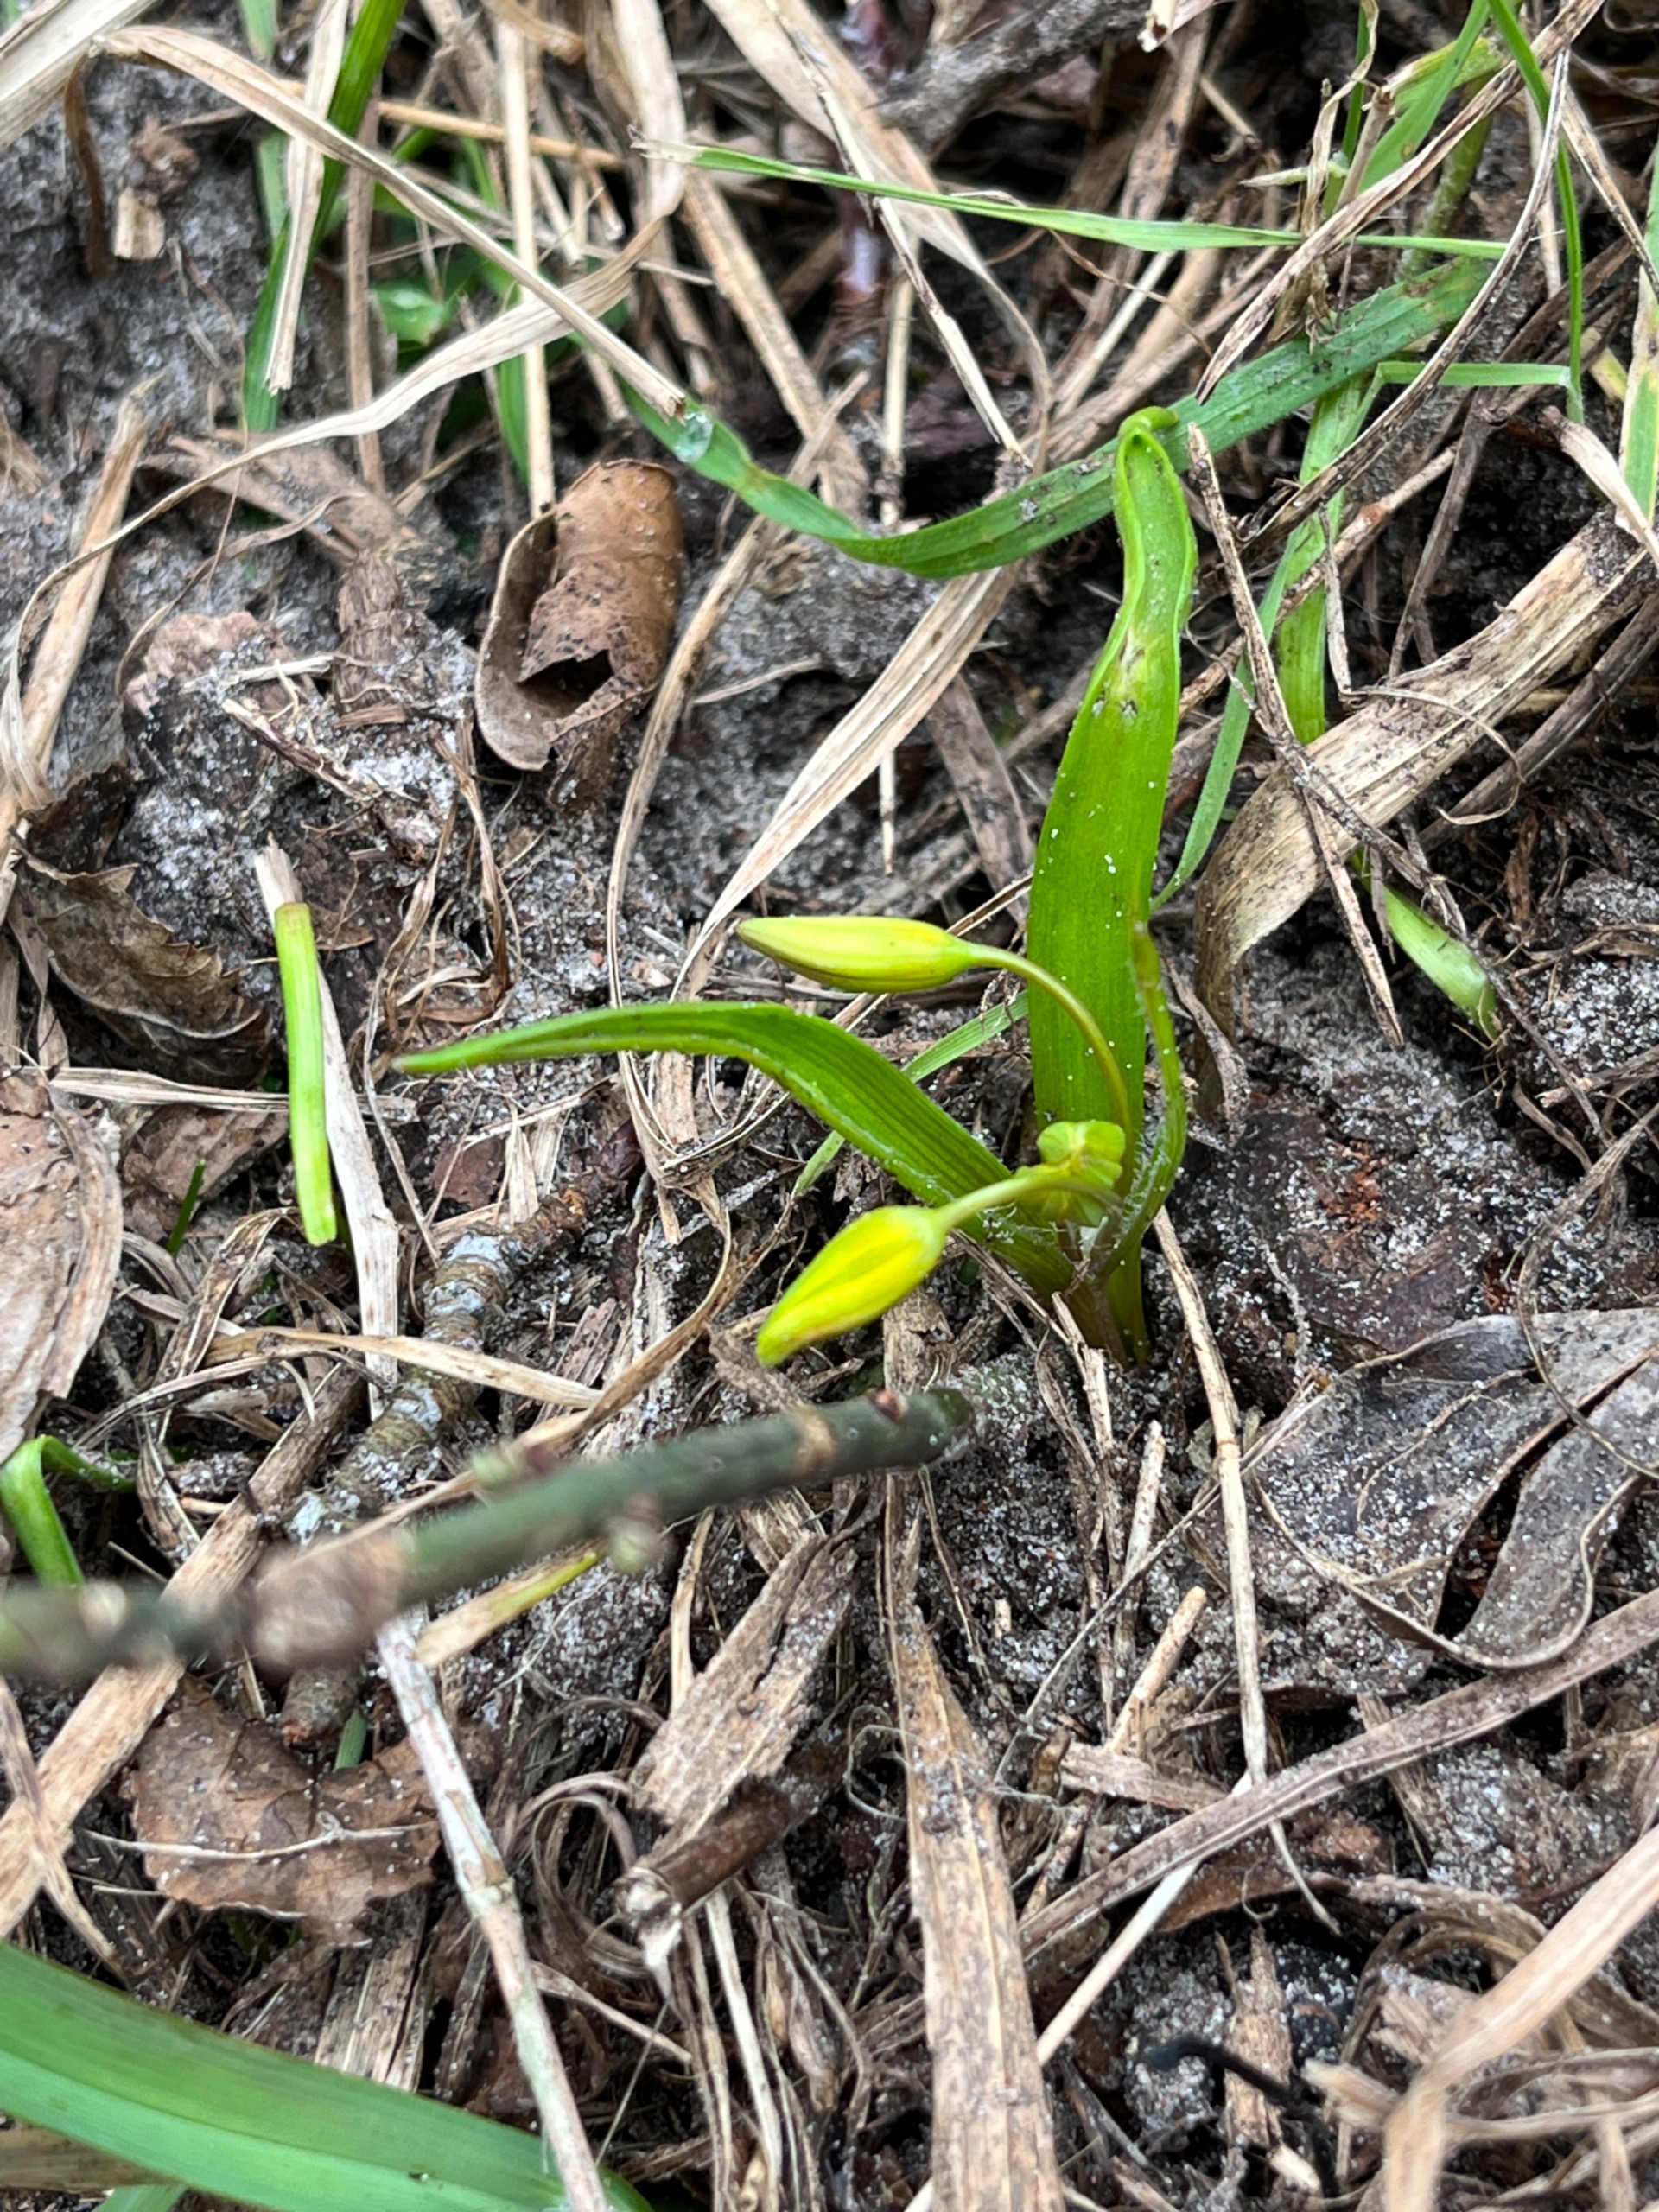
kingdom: Plantae
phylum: Tracheophyta
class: Liliopsida
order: Liliales
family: Liliaceae
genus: Gagea
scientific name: Gagea lutea
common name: Almindelig guldstjerne
